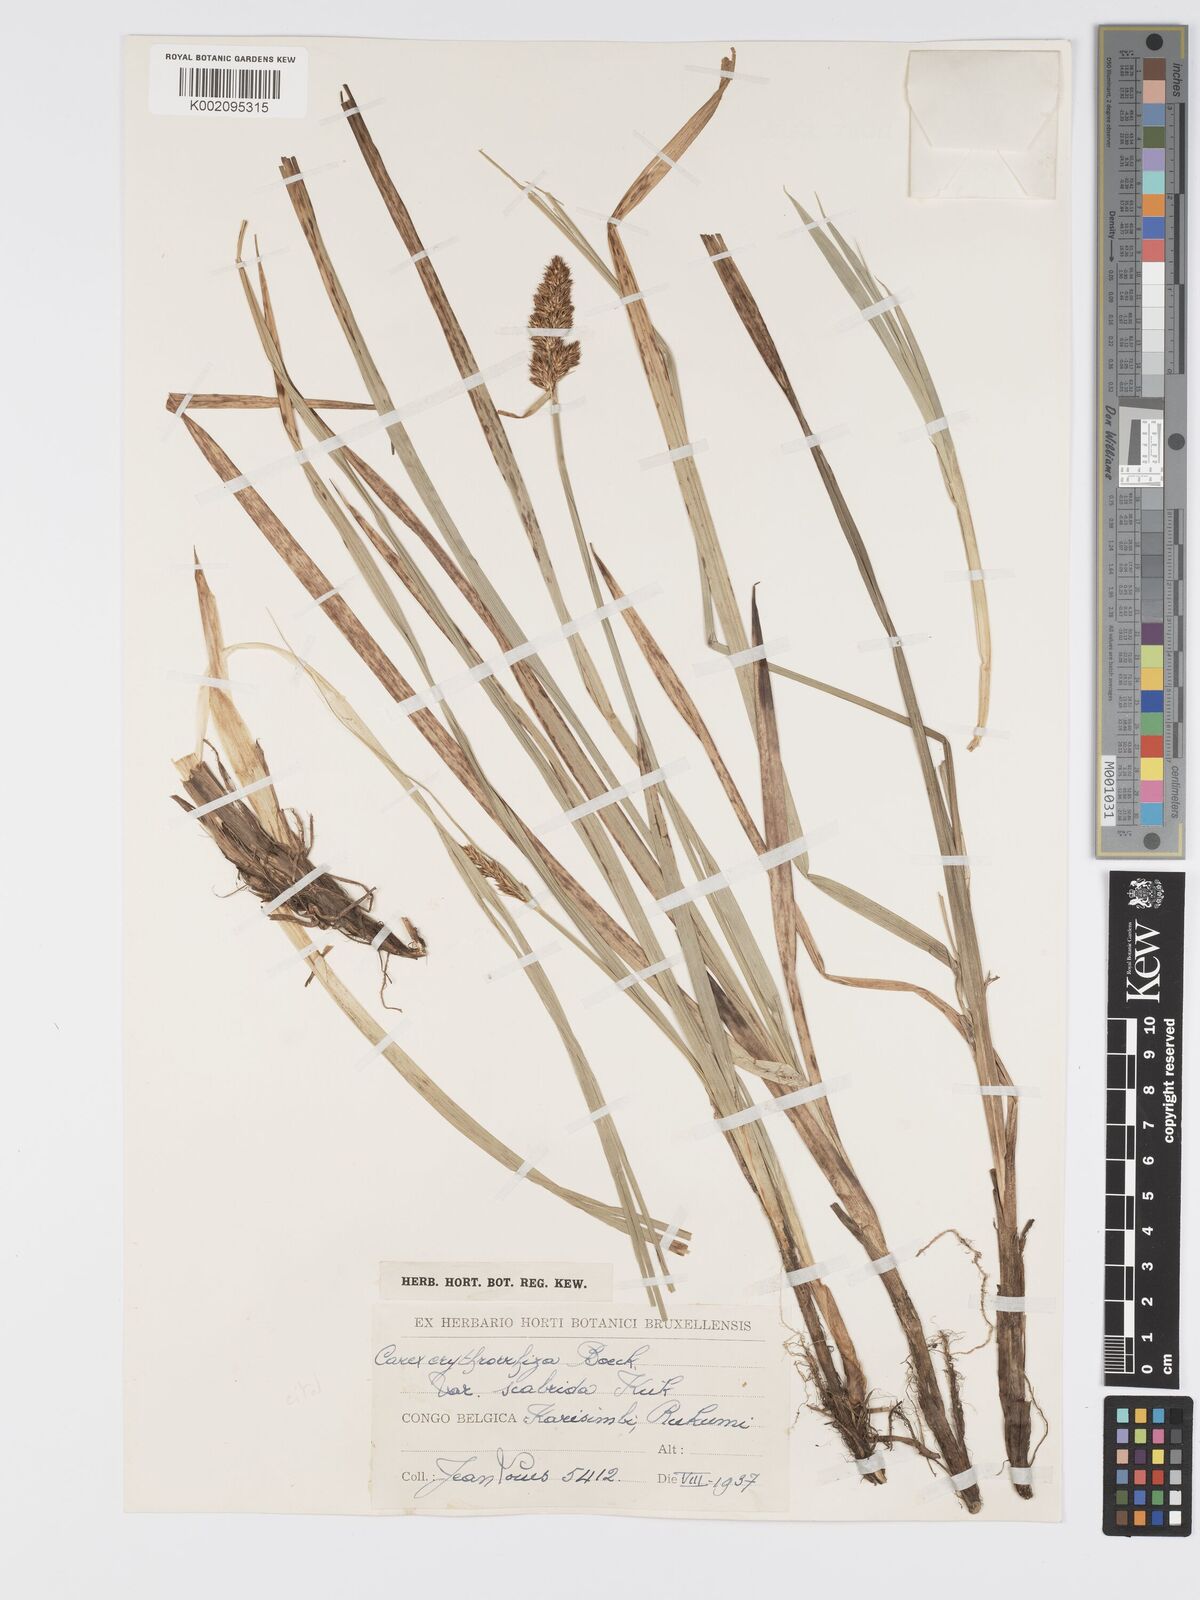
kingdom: Plantae
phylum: Tracheophyta
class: Liliopsida
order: Poales
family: Cyperaceae
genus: Carex
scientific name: Carex lycurus
